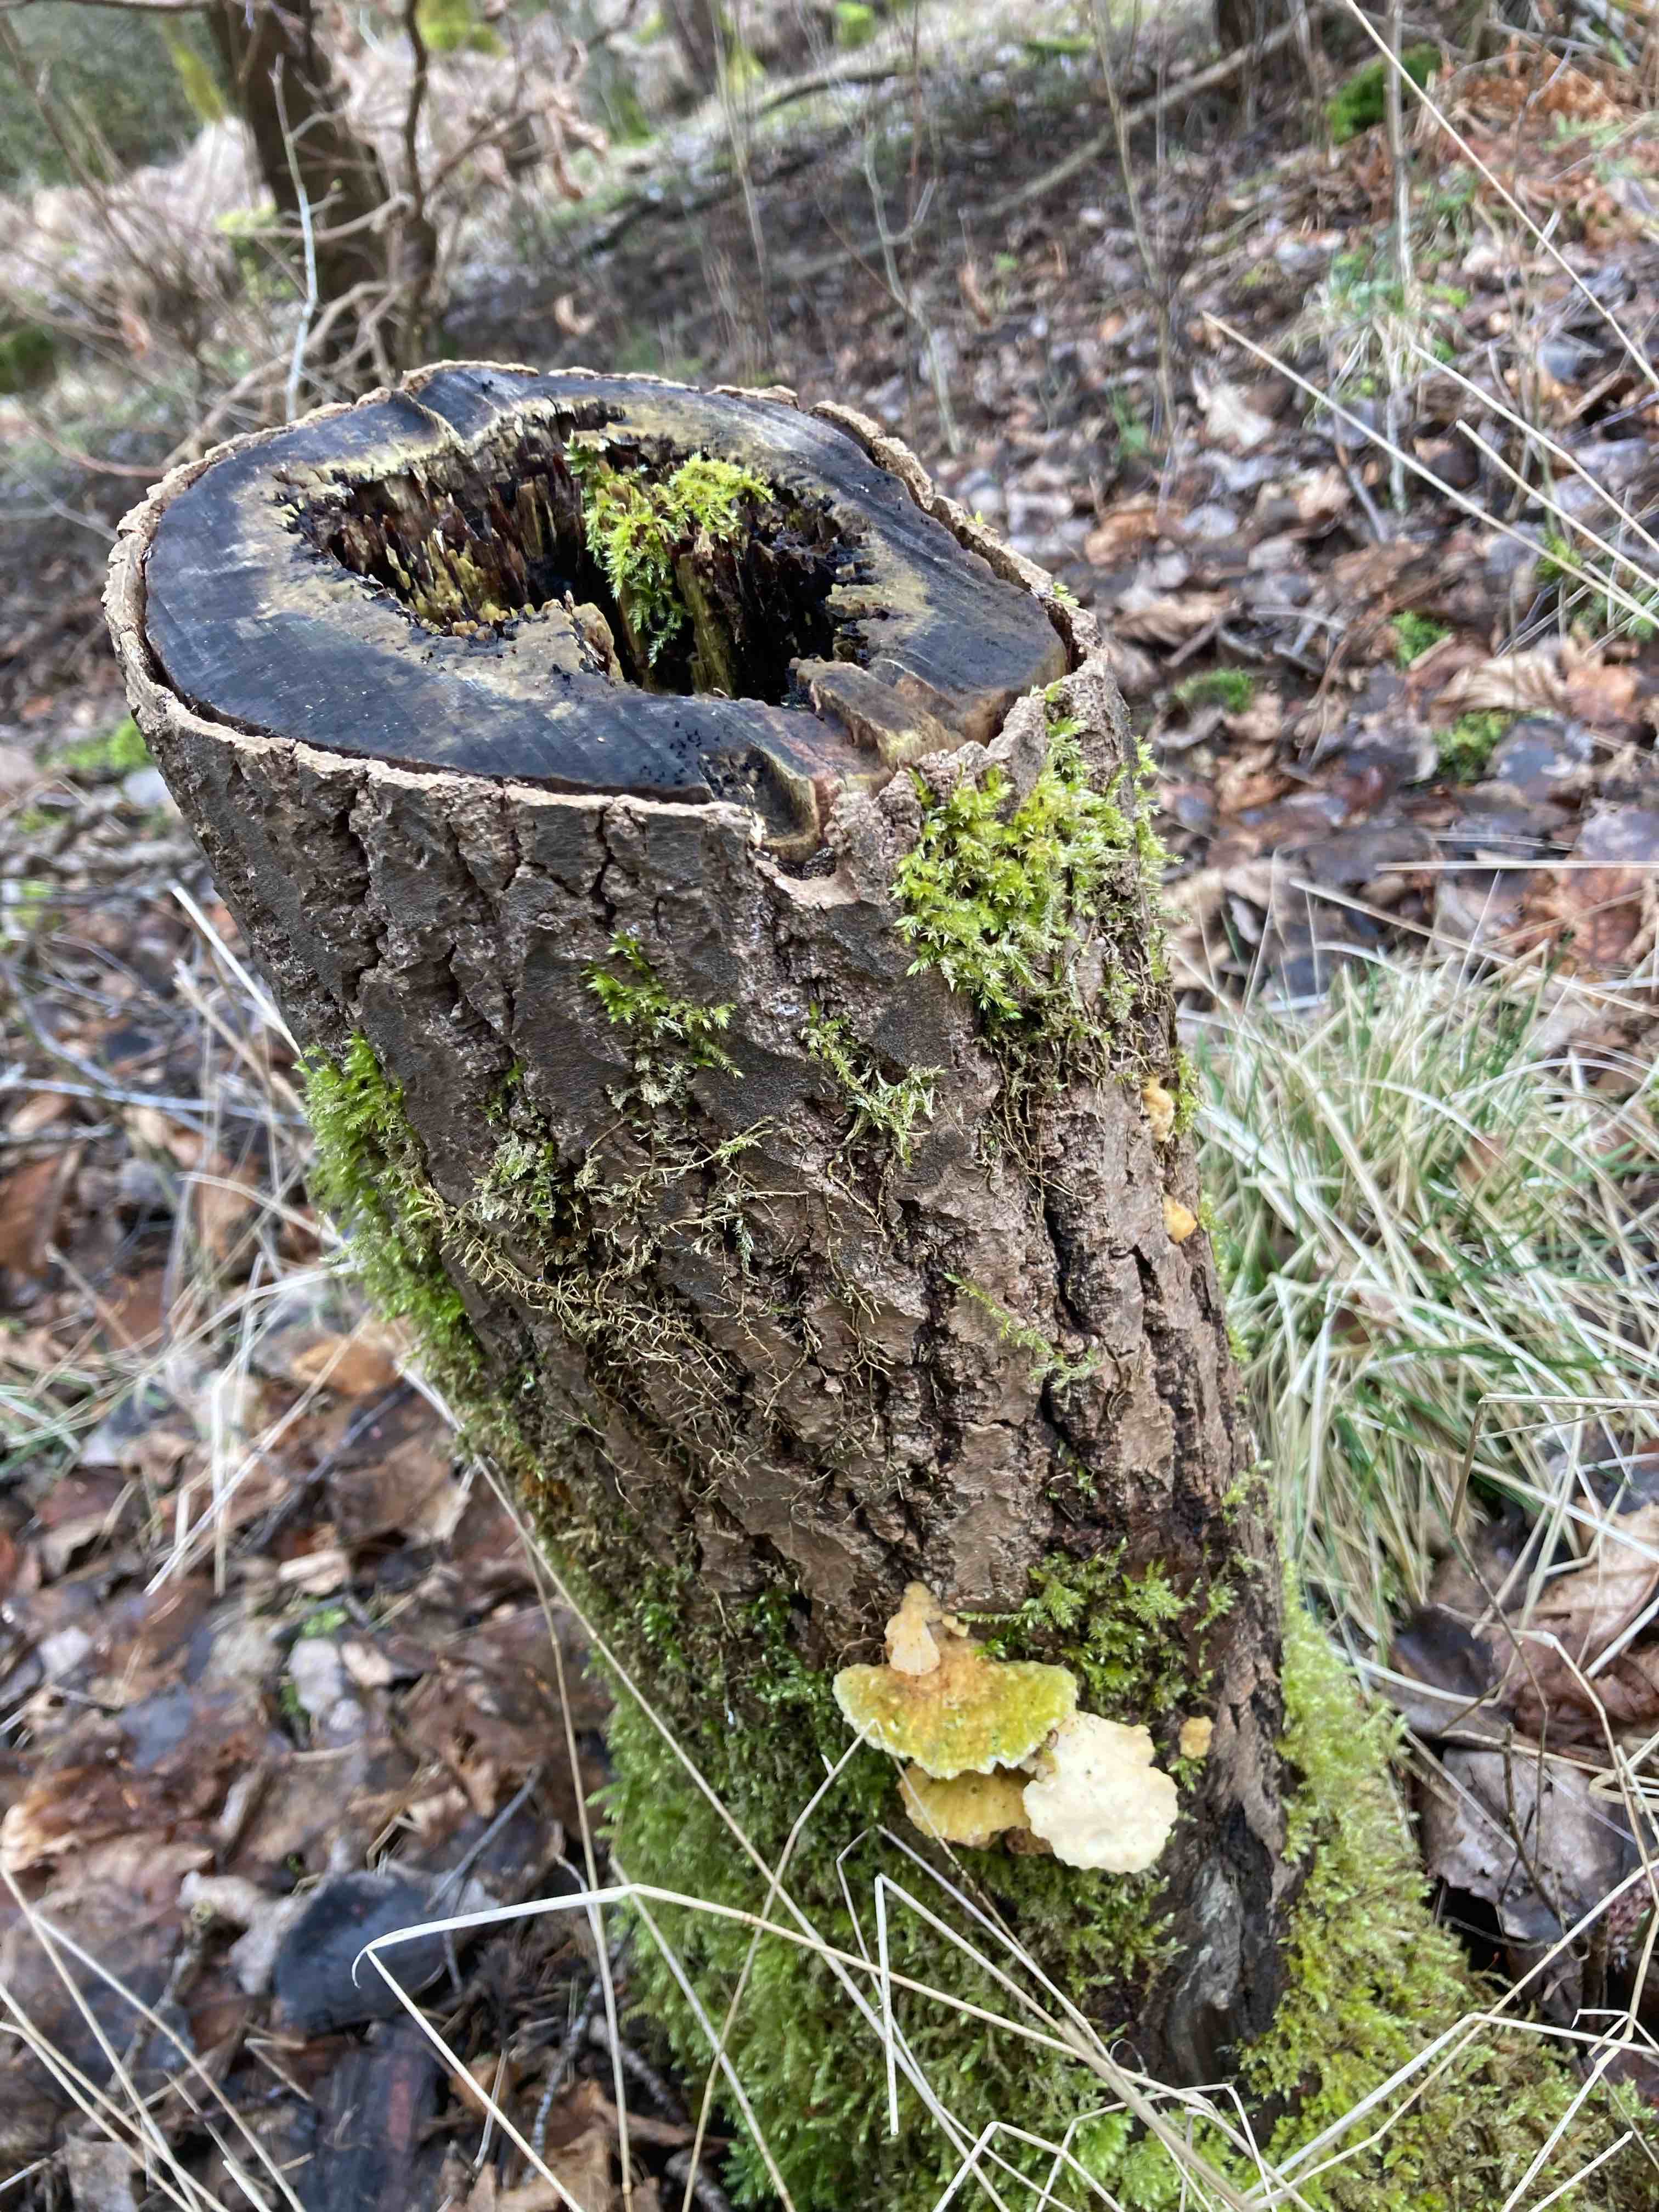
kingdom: Fungi
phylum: Basidiomycota
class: Agaricomycetes
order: Polyporales
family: Polyporaceae
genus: Trametes
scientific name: Trametes hirsuta
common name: håret læderporesvamp
